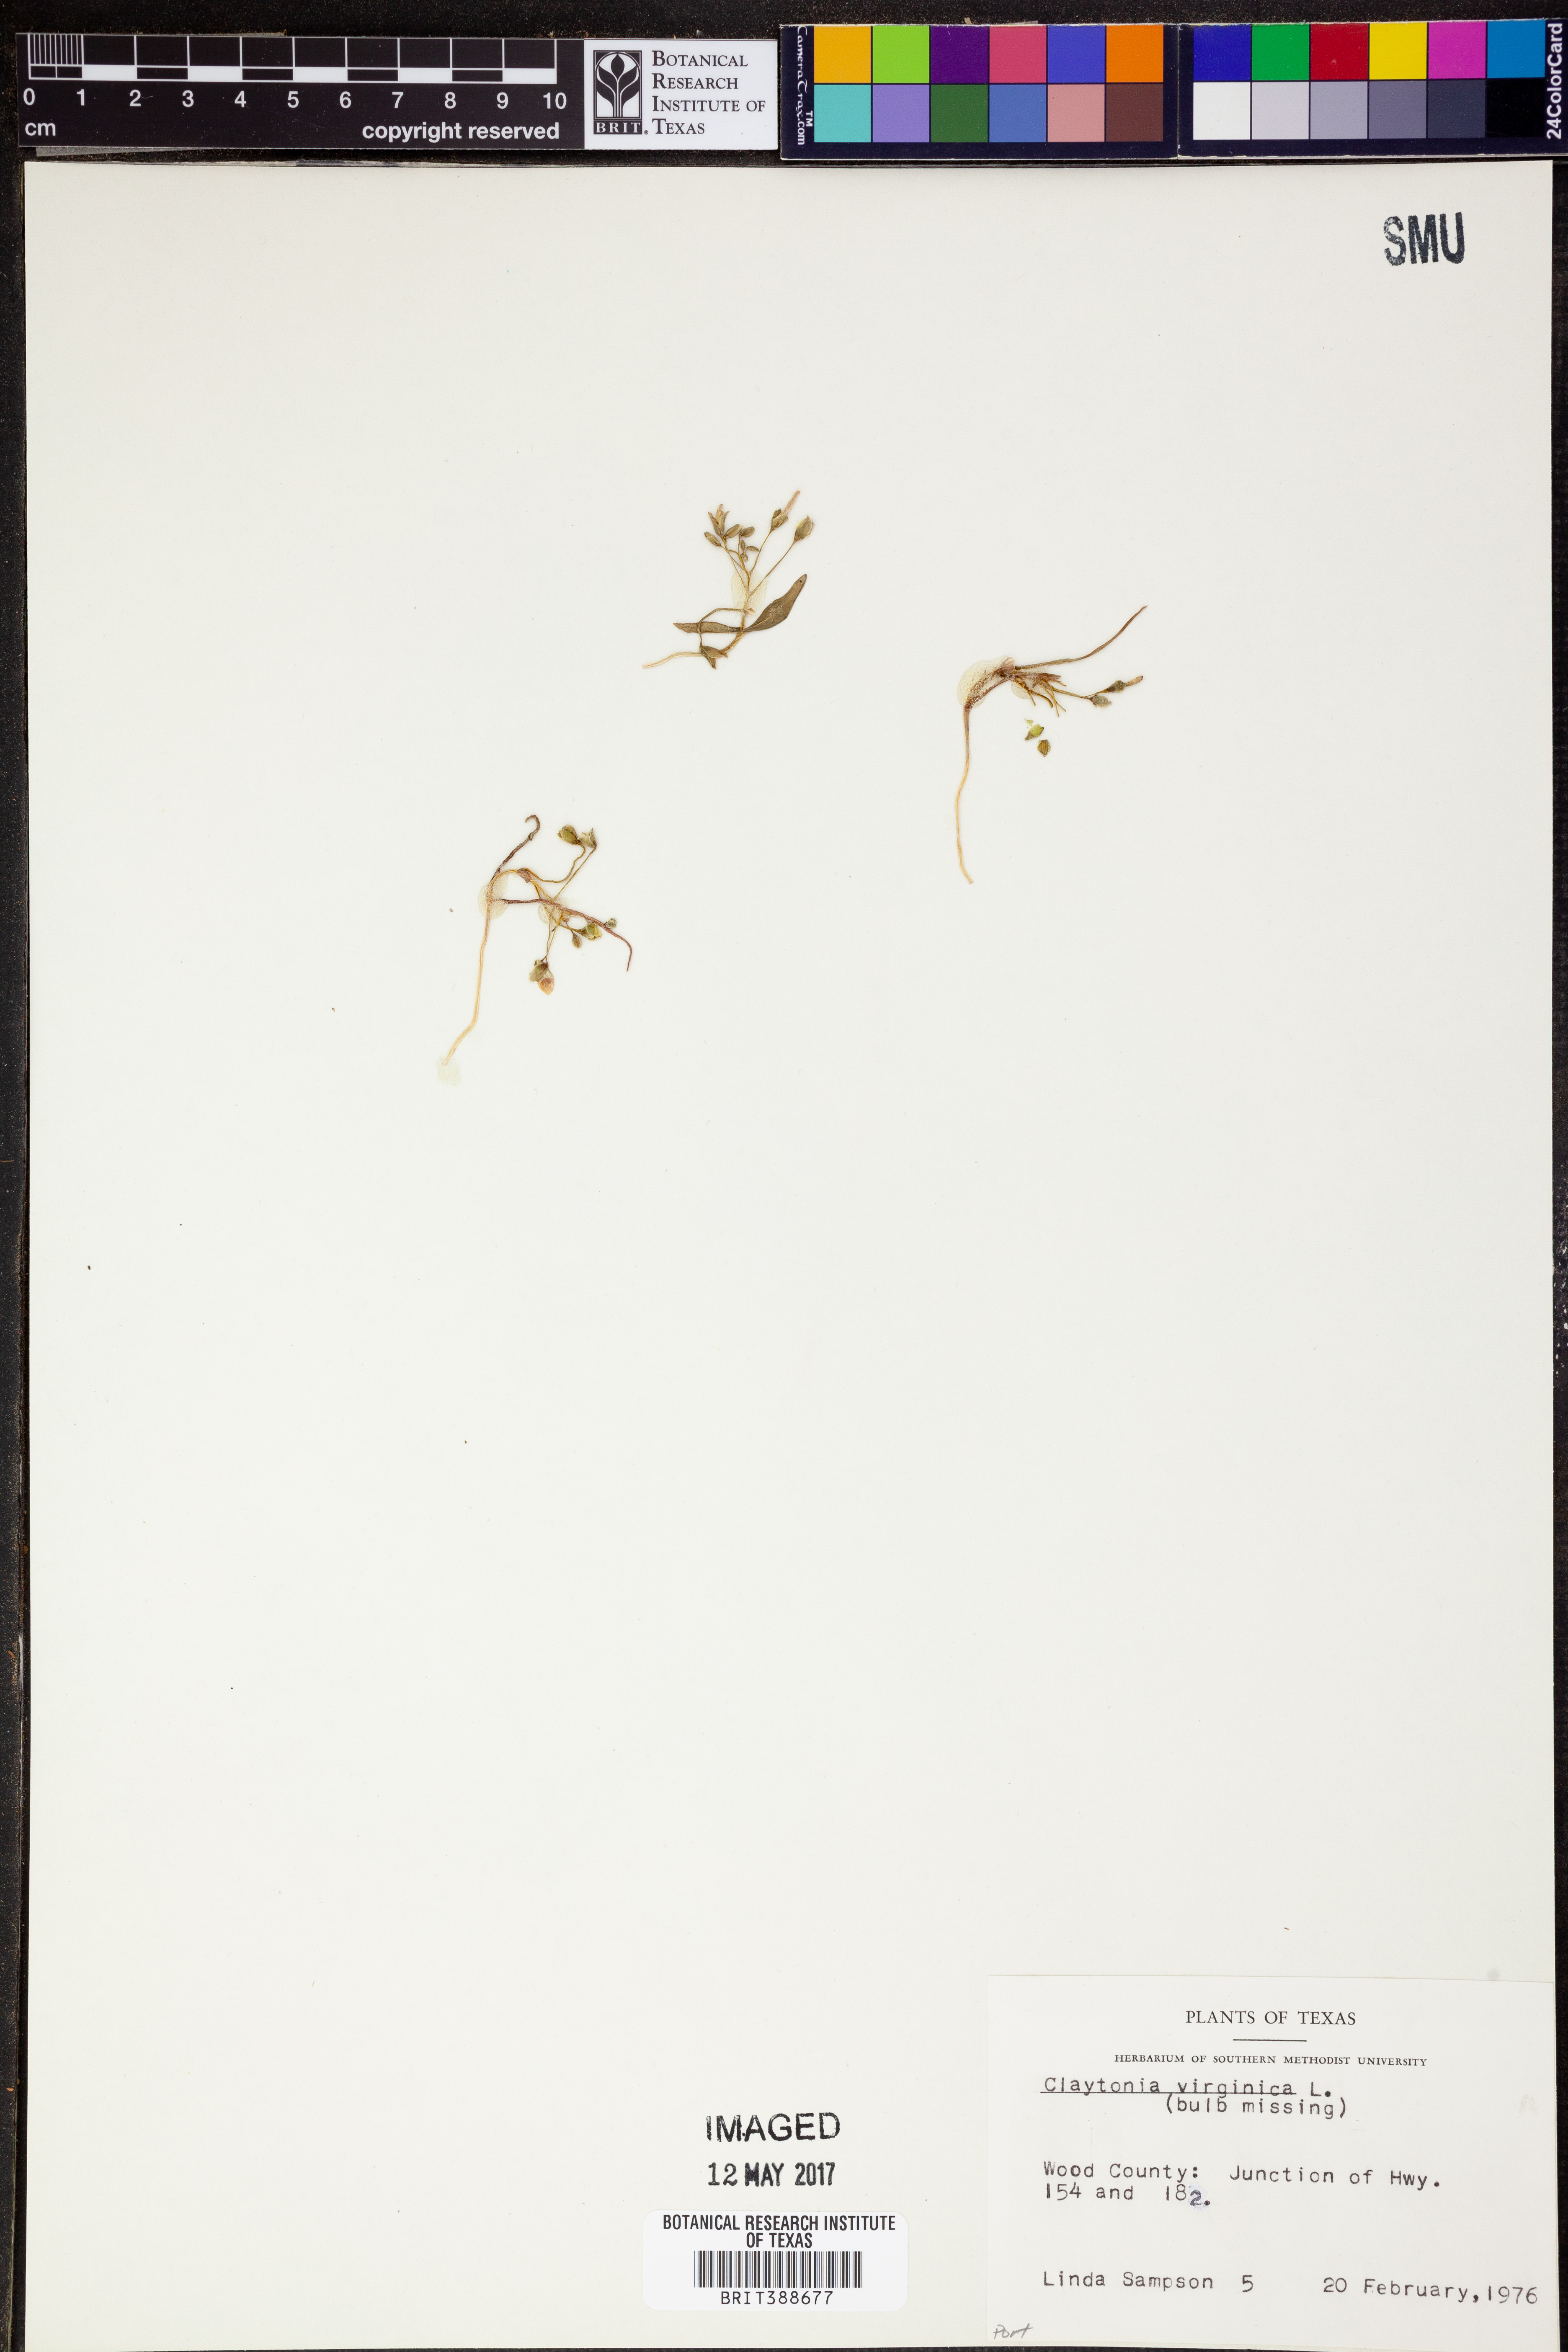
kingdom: Plantae
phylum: Tracheophyta
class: Magnoliopsida
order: Caryophyllales
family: Montiaceae
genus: Claytonia
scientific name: Claytonia virginica
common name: Virginia springbeauty
